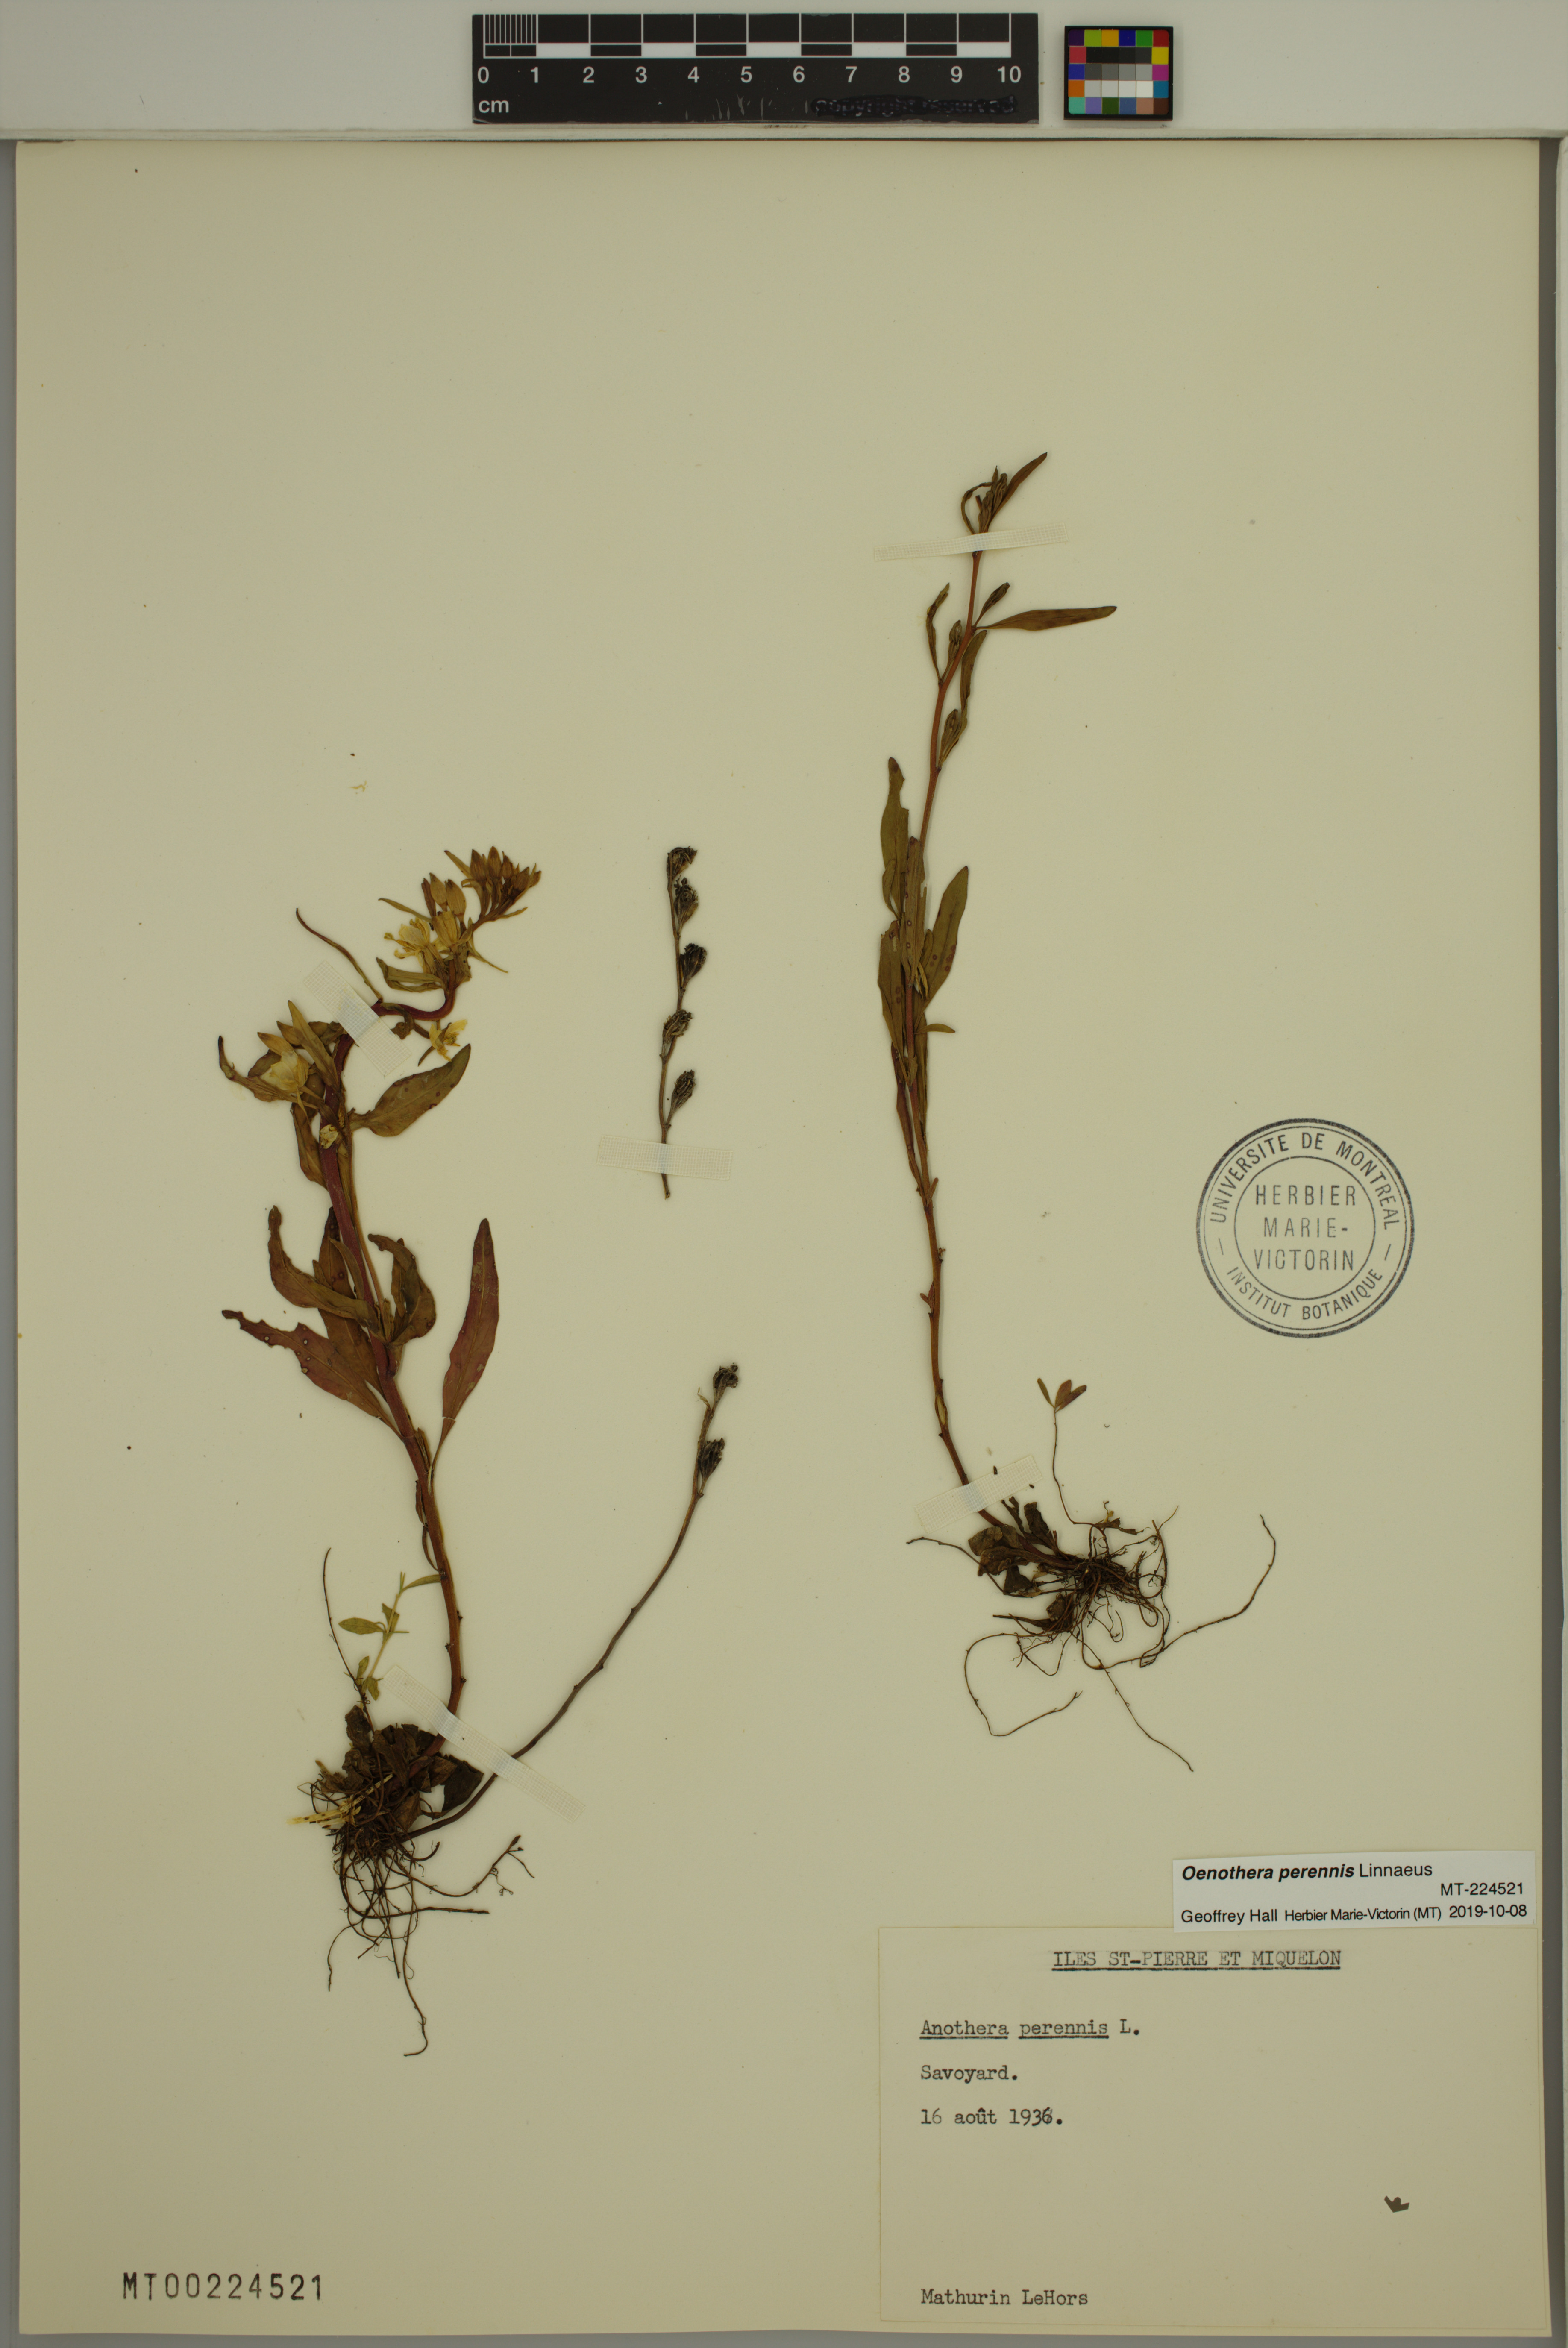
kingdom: Plantae
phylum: Tracheophyta
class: Magnoliopsida
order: Myrtales
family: Onagraceae
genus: Oenothera
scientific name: Oenothera perennis
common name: Small sundrops
